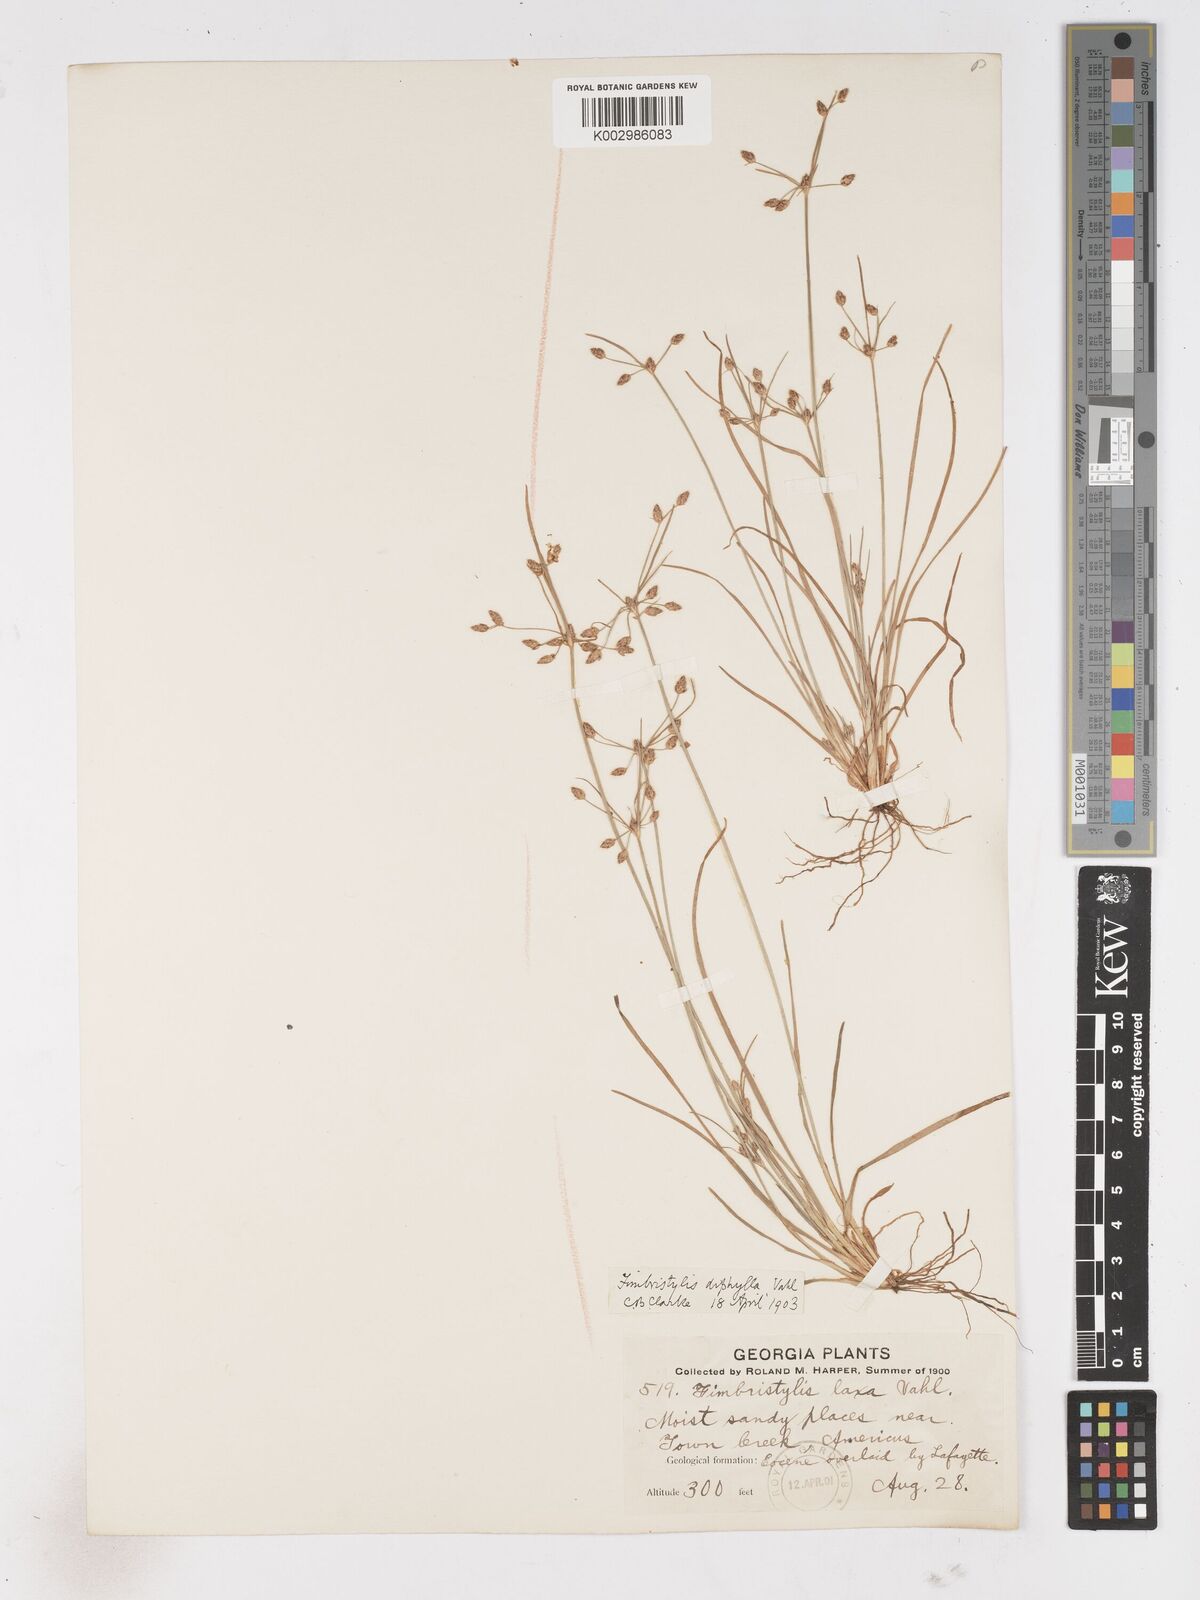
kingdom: Plantae
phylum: Tracheophyta
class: Liliopsida
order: Poales
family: Cyperaceae
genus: Fimbristylis
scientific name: Fimbristylis dichotoma
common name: Forked fimbry
